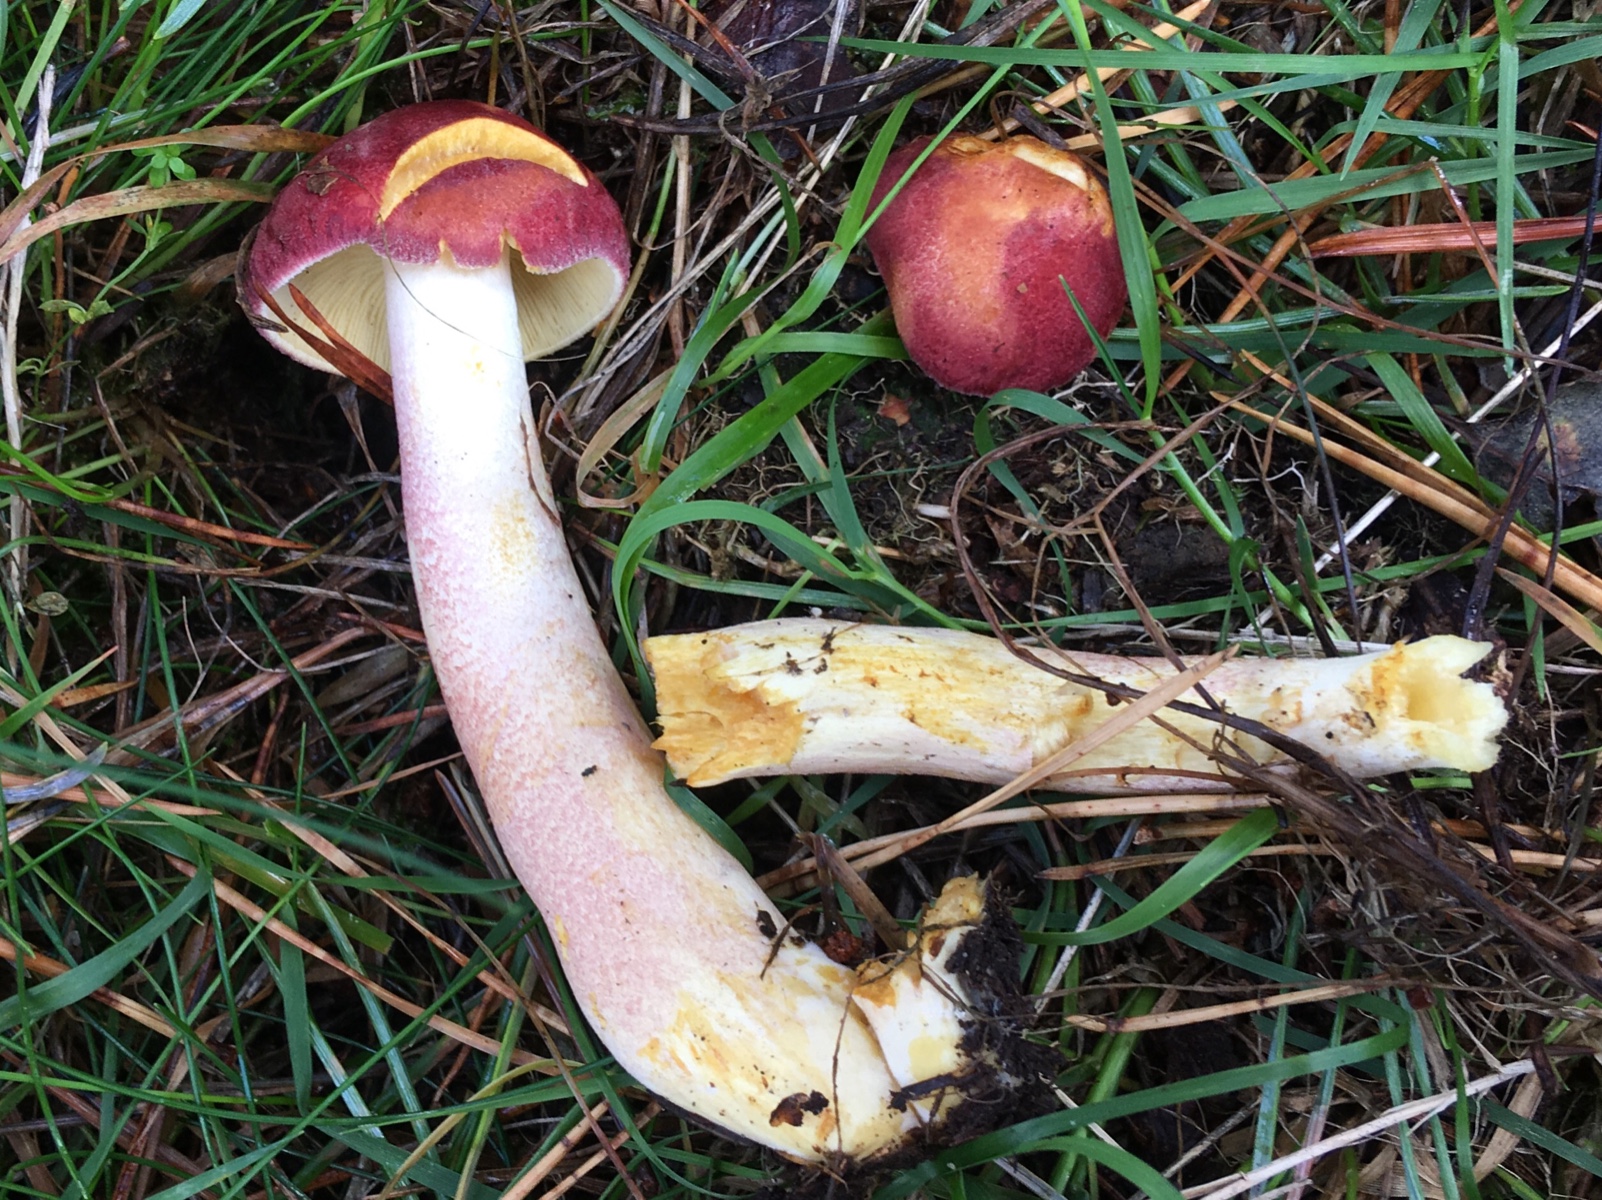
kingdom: Fungi
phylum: Basidiomycota
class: Agaricomycetes
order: Agaricales
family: Tricholomataceae
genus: Tricholomopsis
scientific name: Tricholomopsis rutilans
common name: purpur-væbnerhat
